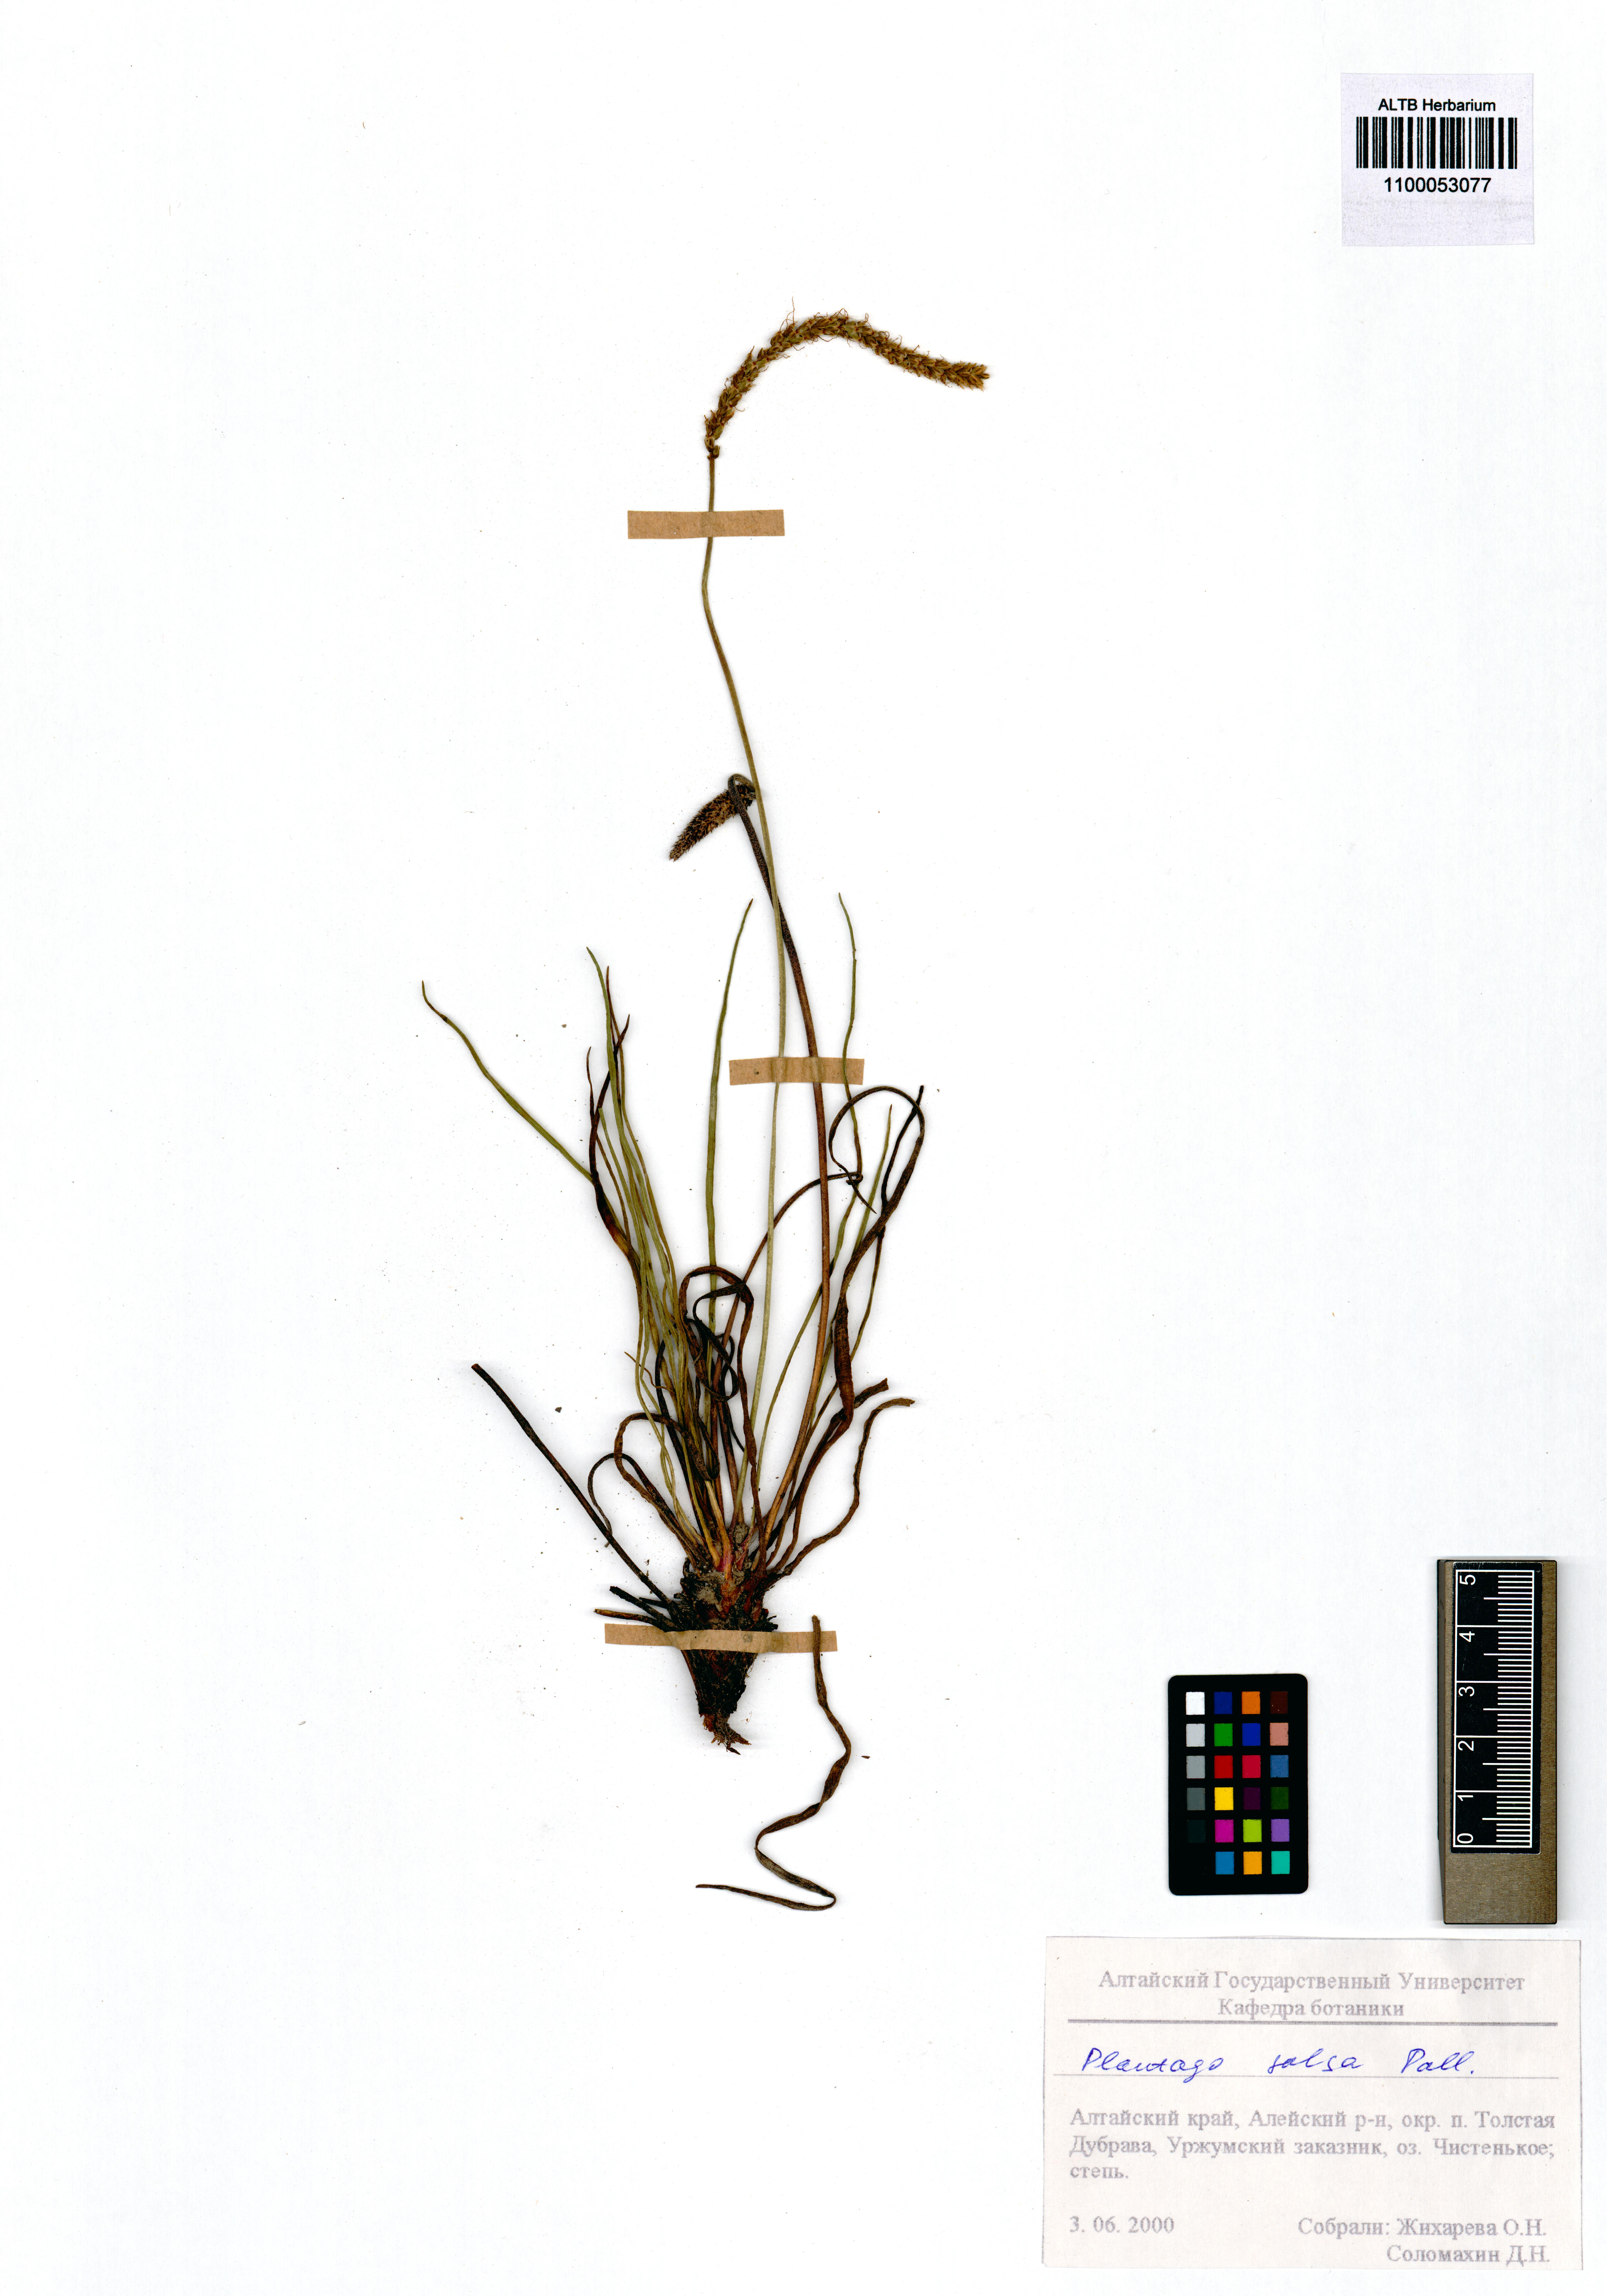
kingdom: Plantae
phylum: Tracheophyta
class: Magnoliopsida
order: Lamiales
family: Plantaginaceae
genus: Plantago
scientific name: Plantago salsa
